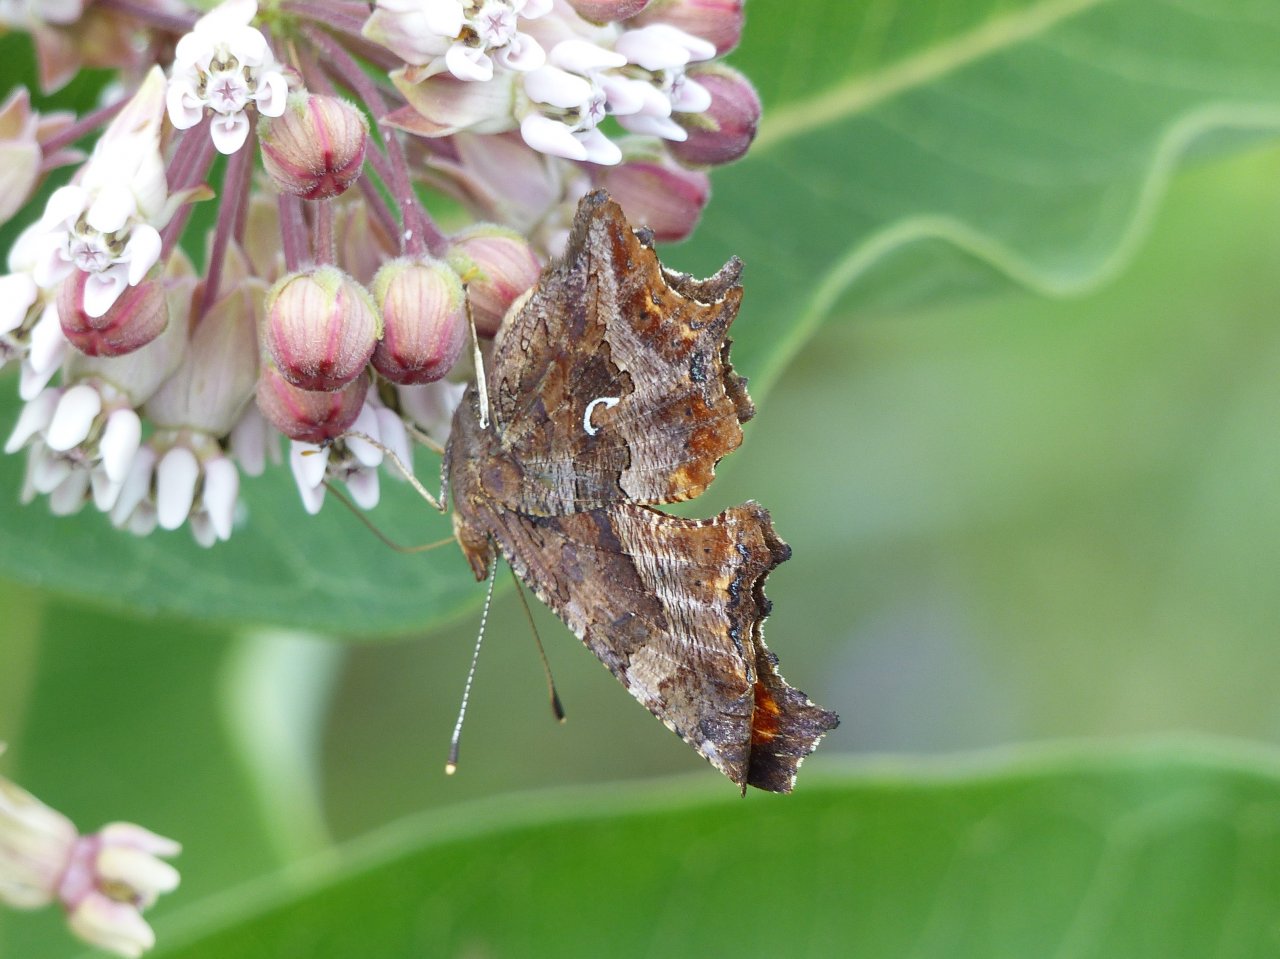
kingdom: Animalia
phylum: Arthropoda
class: Insecta
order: Lepidoptera
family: Nymphalidae
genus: Polygonia
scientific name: Polygonia comma
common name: Eastern Comma
